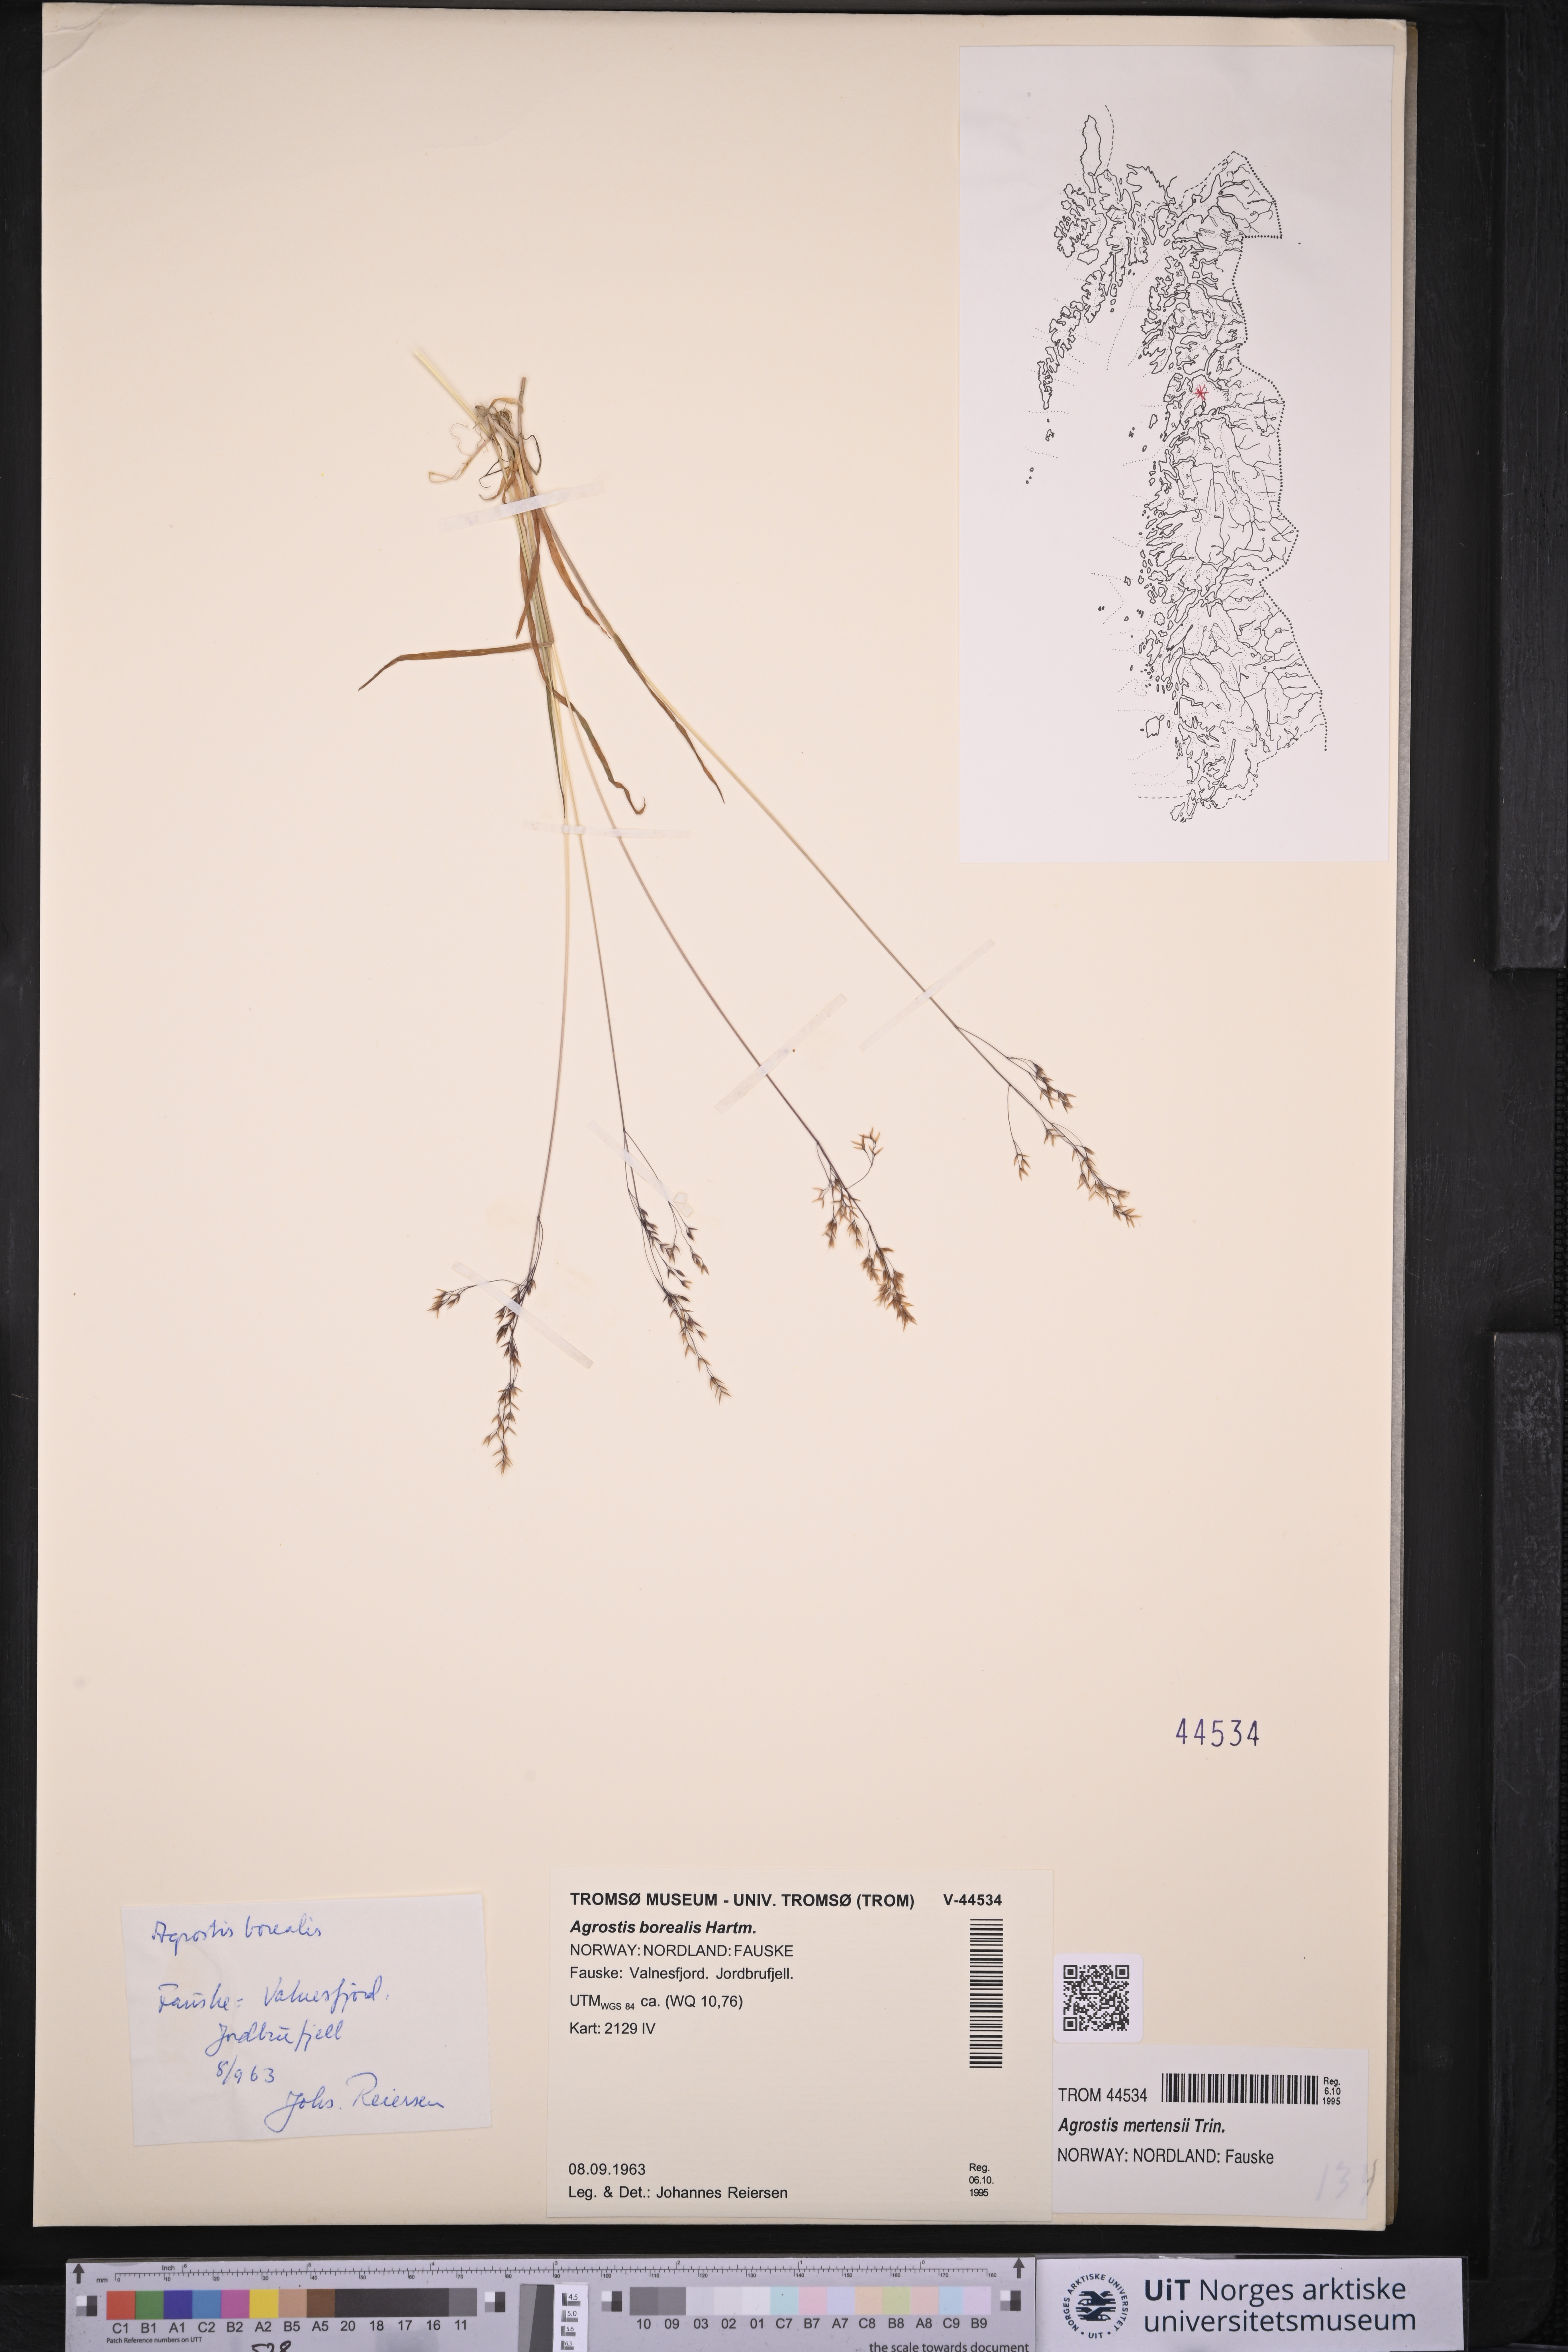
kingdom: Plantae
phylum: Tracheophyta
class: Liliopsida
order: Poales
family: Poaceae
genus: Agrostis
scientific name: Agrostis mertensii
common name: Northern bent
